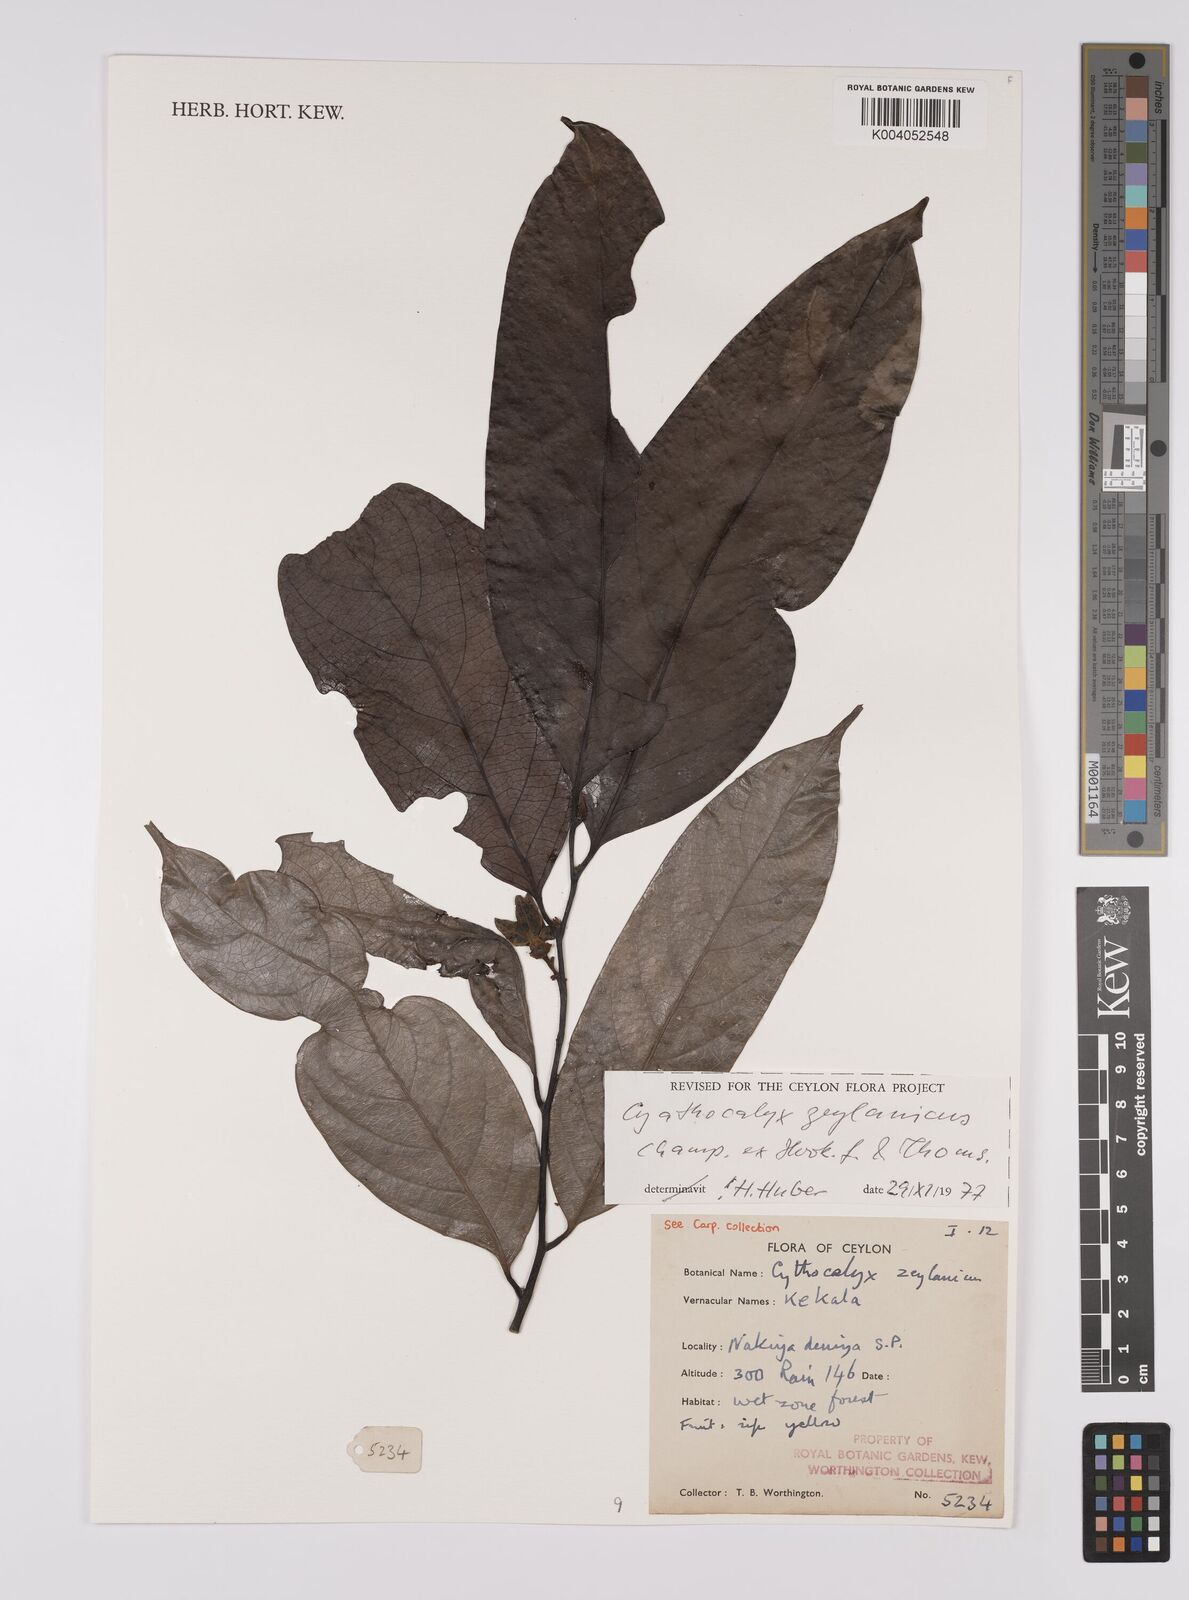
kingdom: Plantae
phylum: Tracheophyta
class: Magnoliopsida
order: Magnoliales
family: Annonaceae
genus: Cyathocalyx
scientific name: Cyathocalyx zeylanicus
